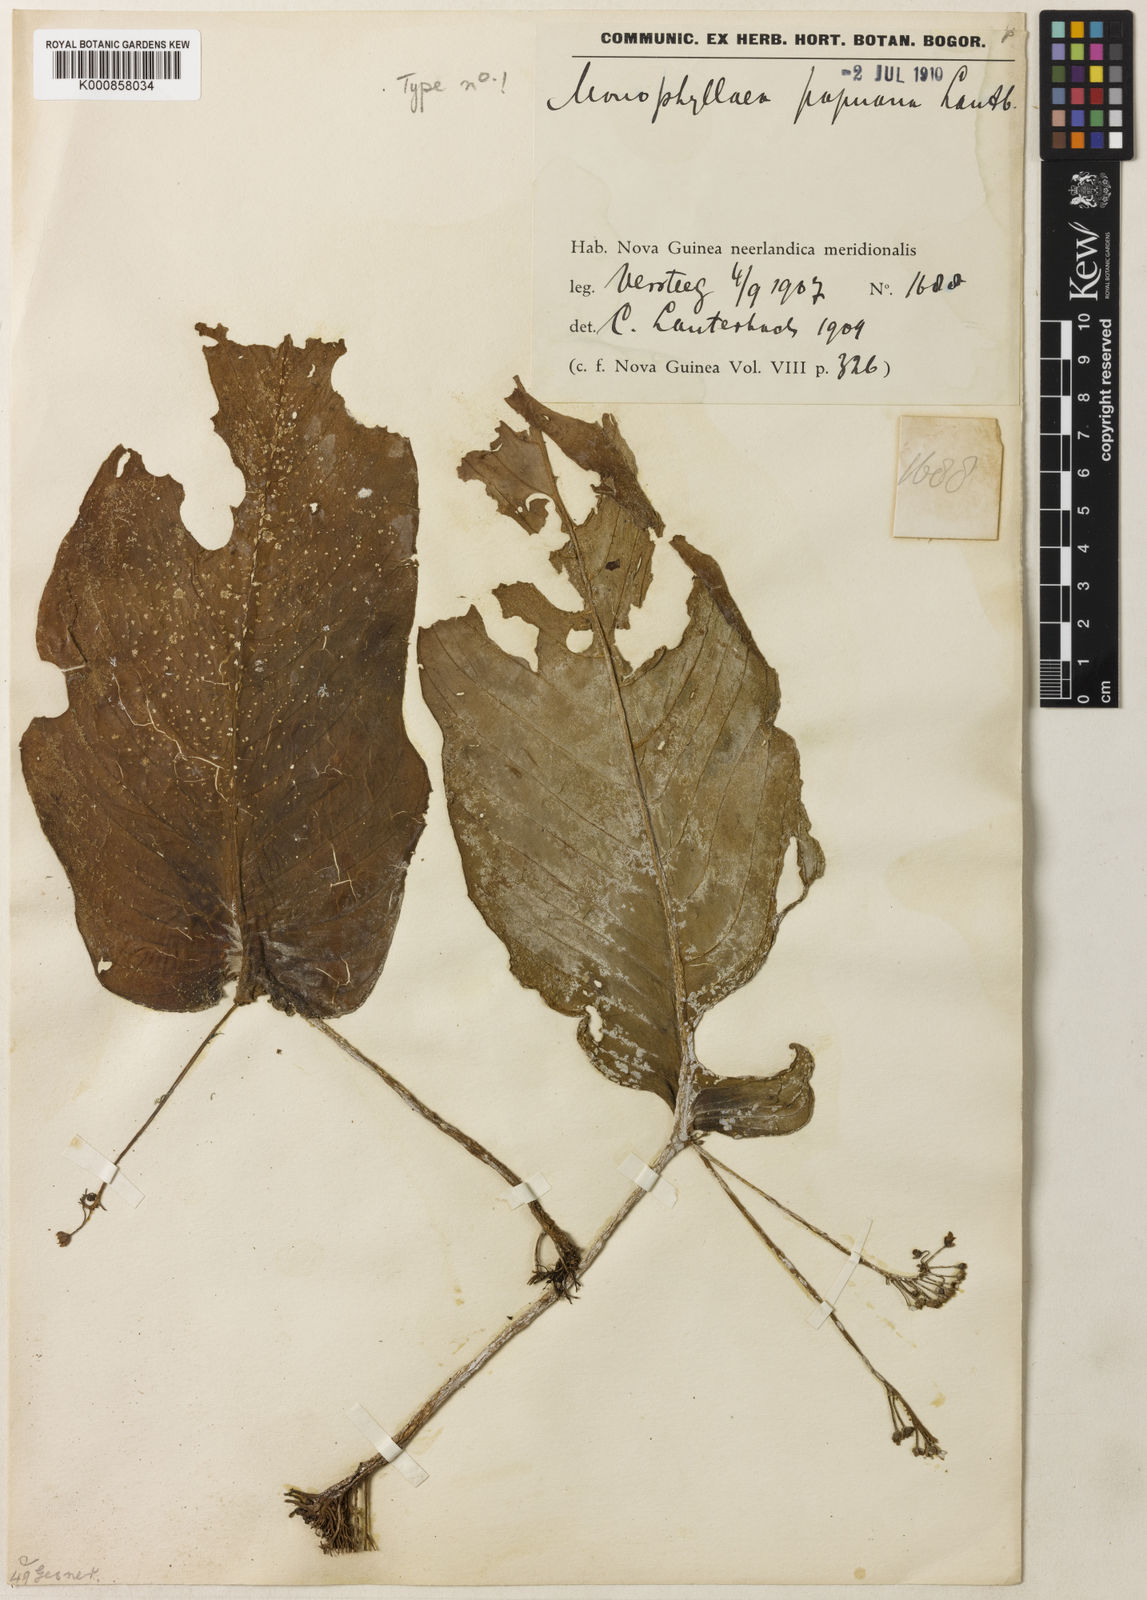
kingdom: Plantae
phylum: Tracheophyta
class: Magnoliopsida
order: Lamiales
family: Gesneriaceae
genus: Monophyllaea
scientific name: Monophyllaea papuana
